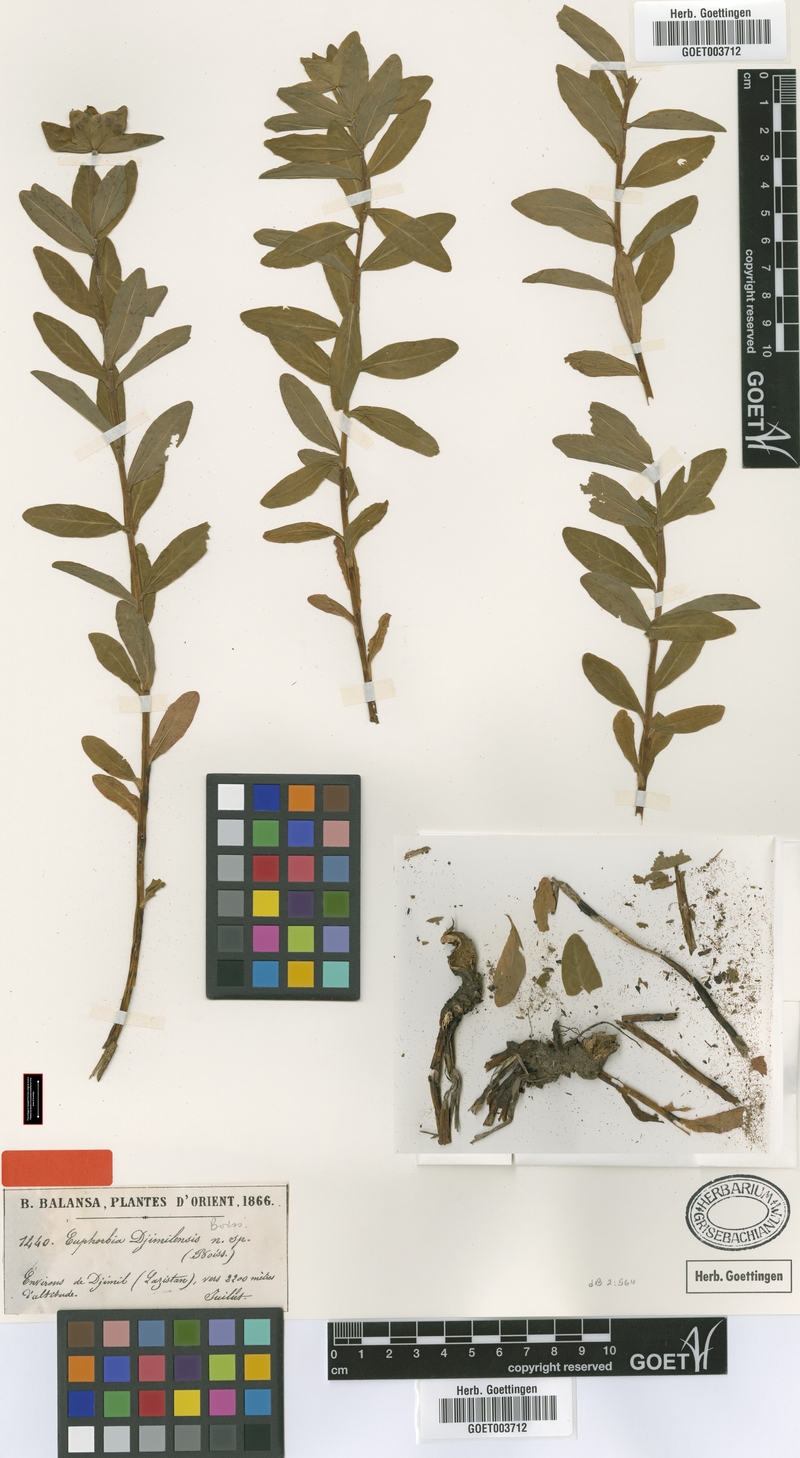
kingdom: Plantae
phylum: Tracheophyta
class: Magnoliopsida
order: Malpighiales
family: Euphorbiaceae
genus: Euphorbia
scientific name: Euphorbia djimilensis
